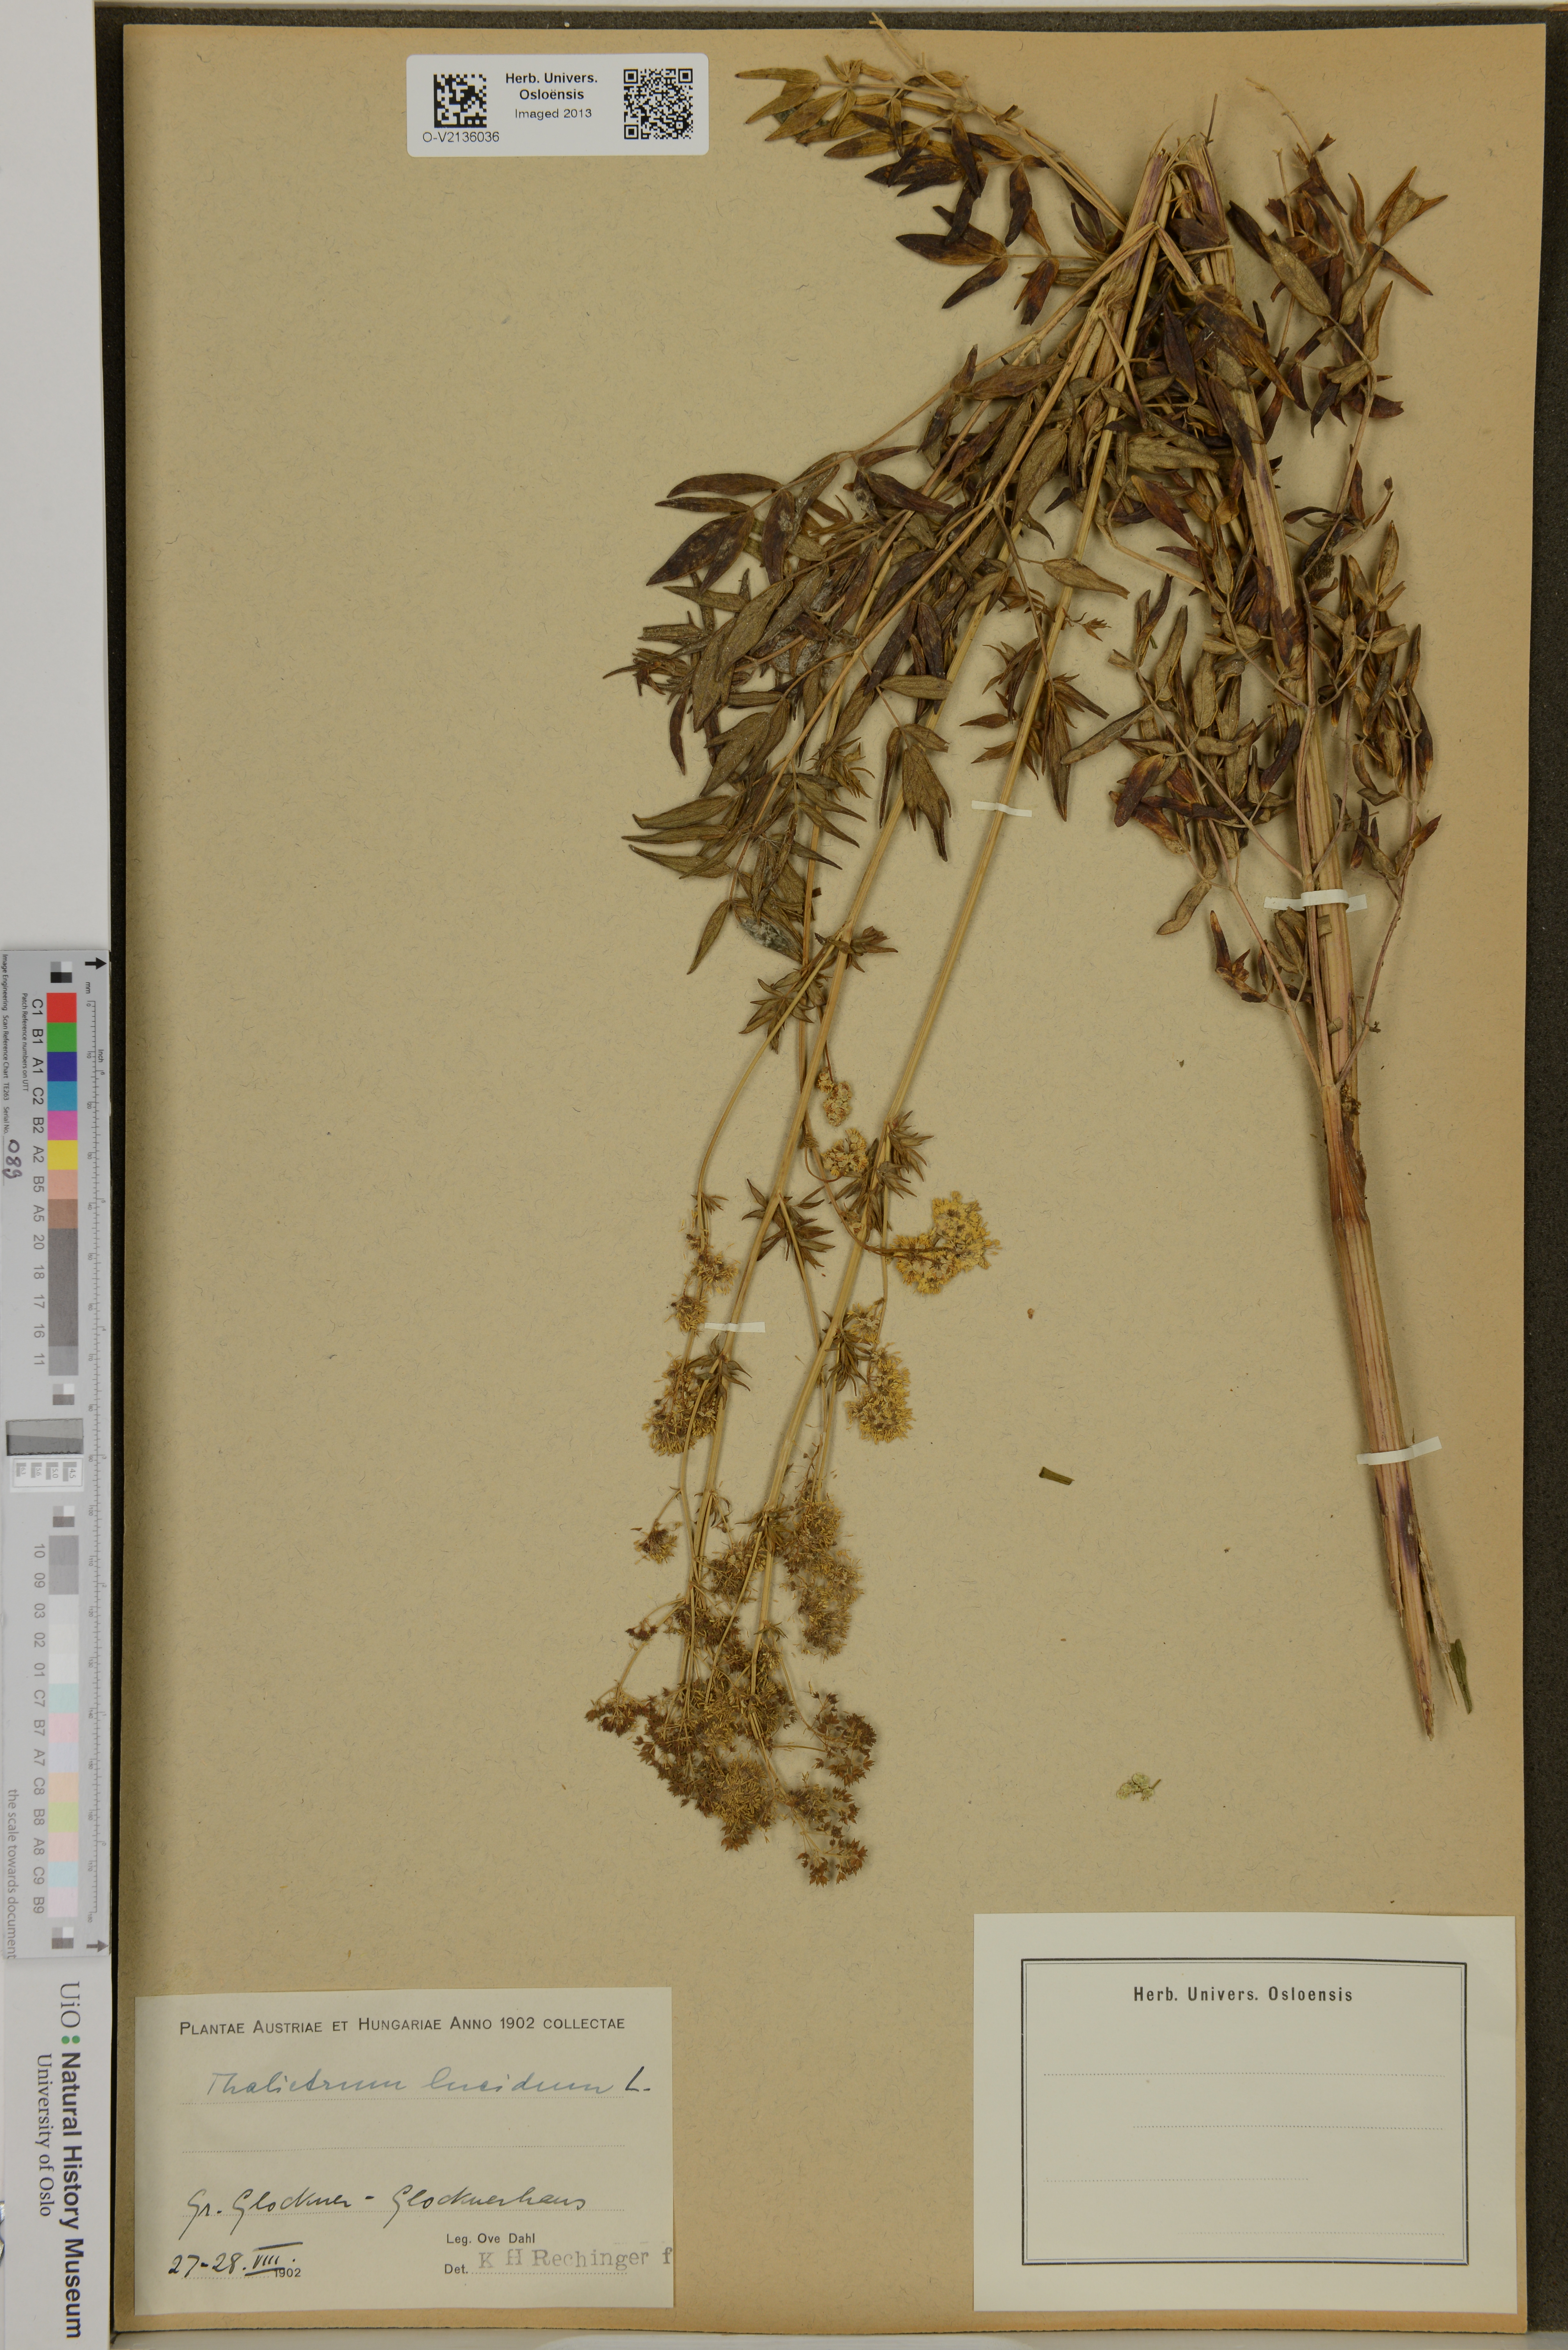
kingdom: Plantae
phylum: Tracheophyta
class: Magnoliopsida
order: Ranunculales
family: Ranunculaceae
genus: Thalictrum
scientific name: Thalictrum lucidum
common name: Shining meadow-rue
